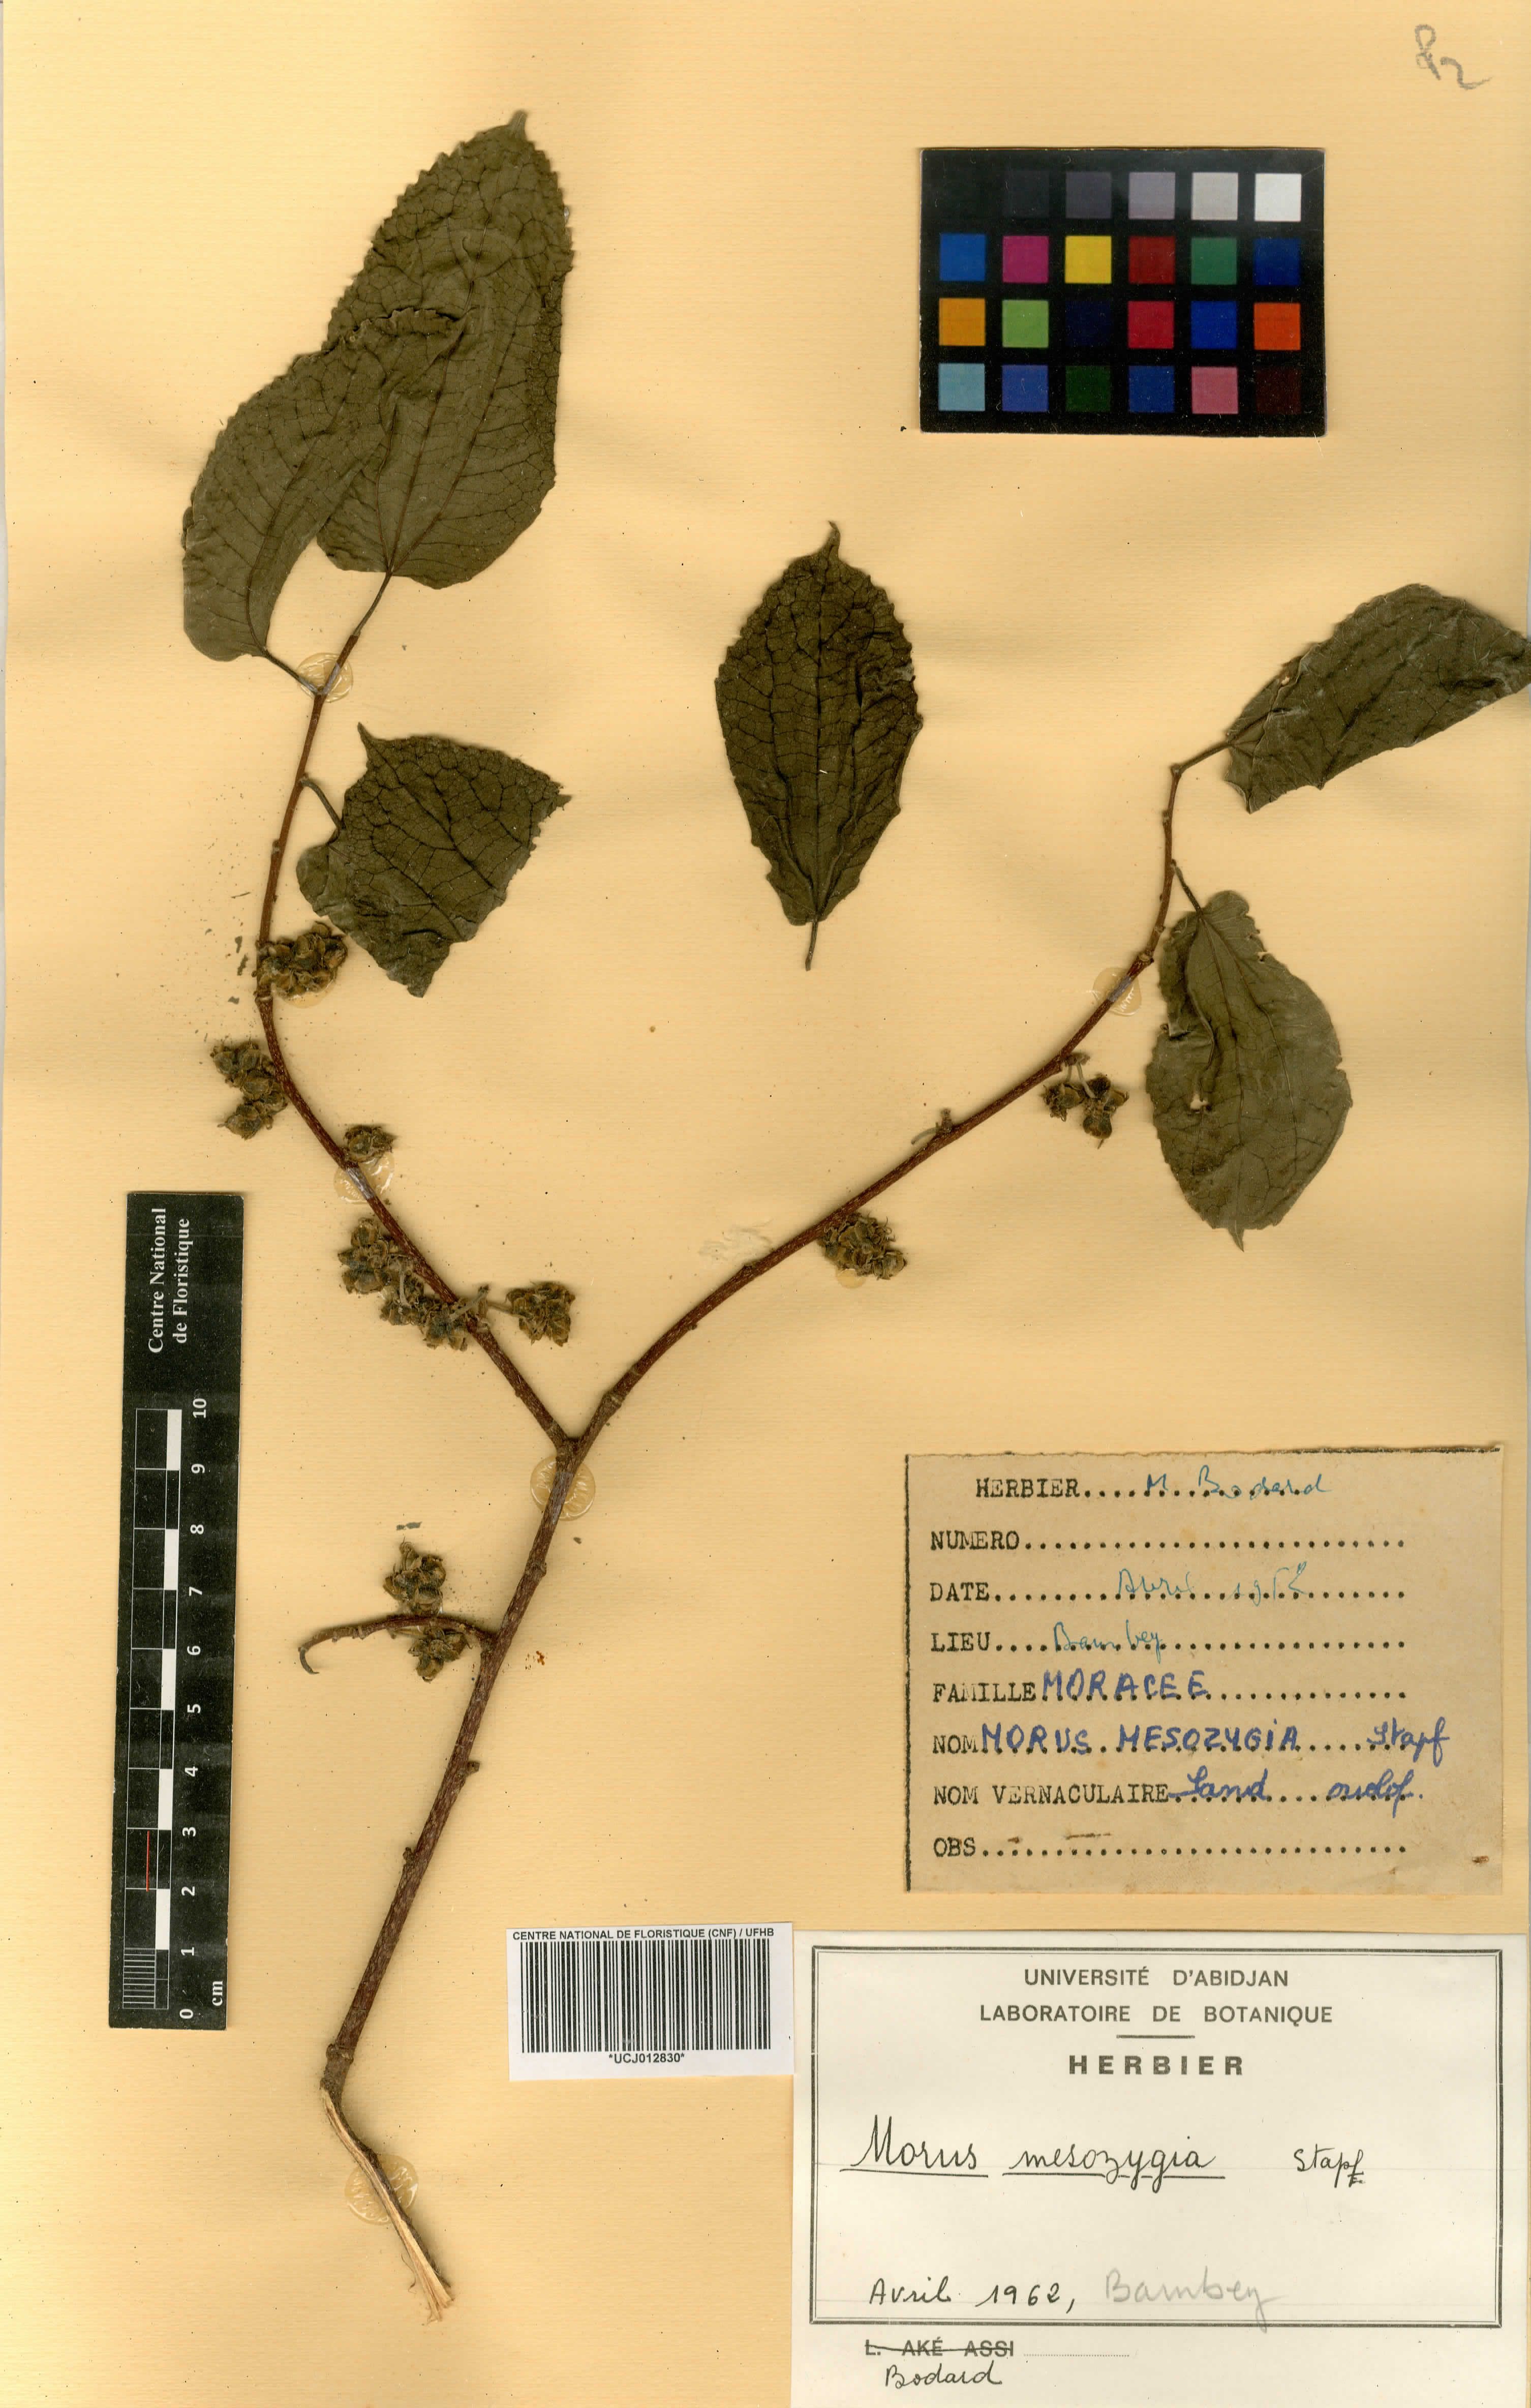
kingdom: Plantae
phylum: Tracheophyta
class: Magnoliopsida
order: Rosales
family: Moraceae
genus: Afromorus
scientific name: Afromorus mesozygia
